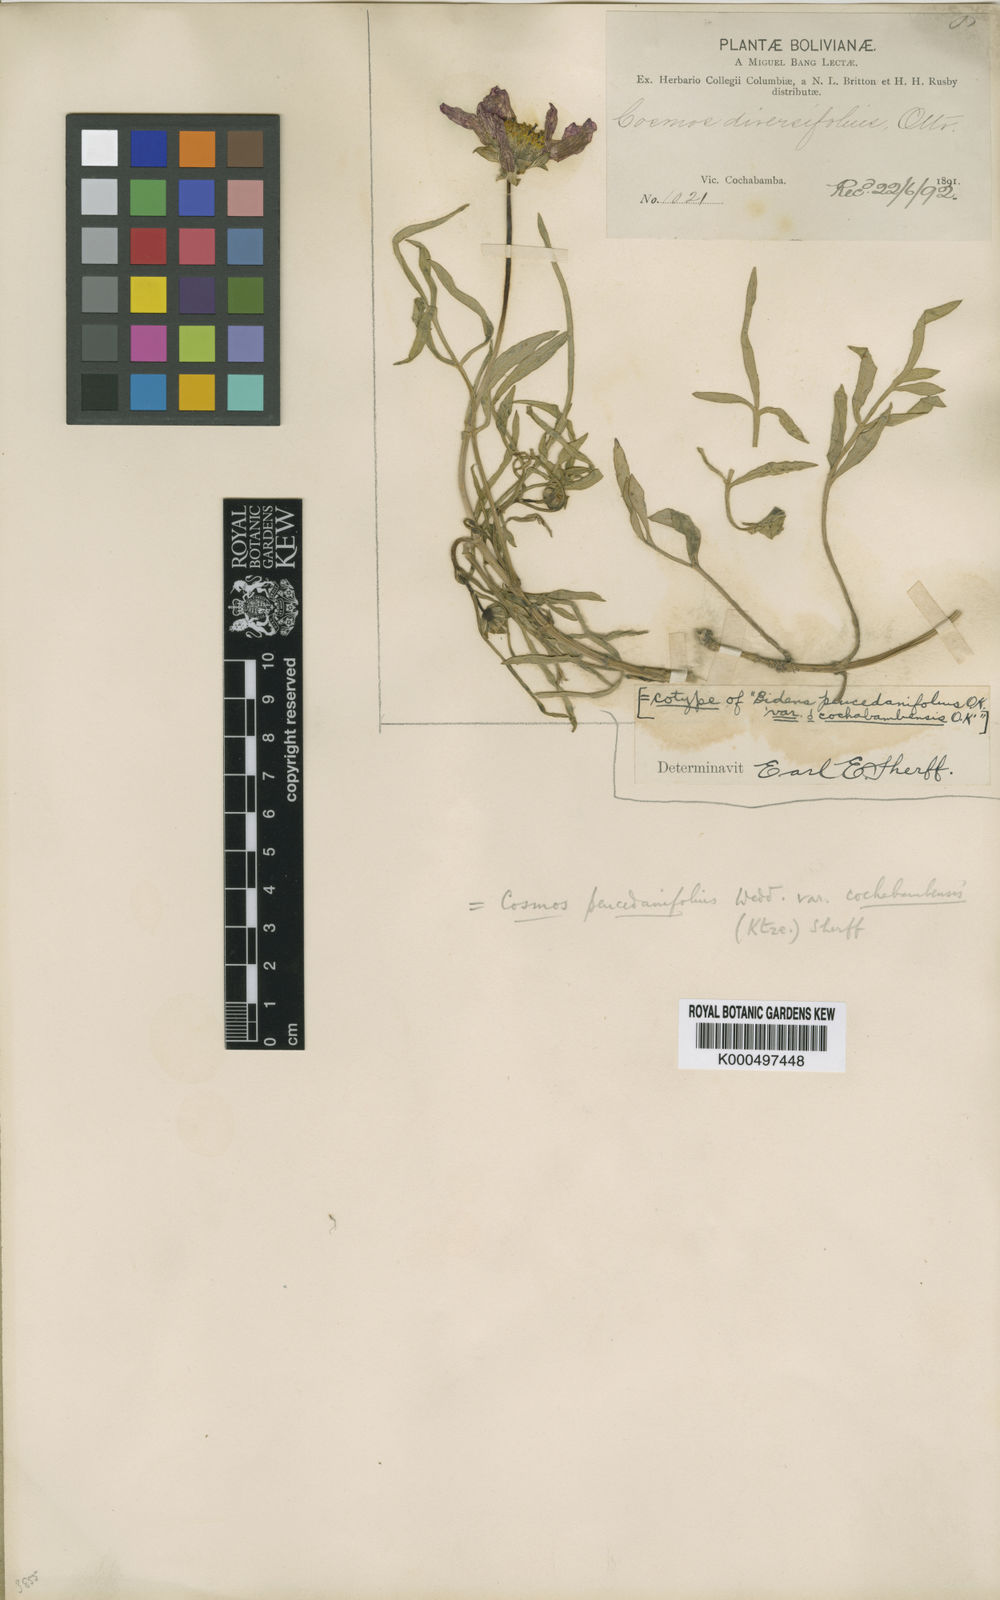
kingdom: Plantae
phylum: Tracheophyta
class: Magnoliopsida
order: Asterales
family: Asteraceae
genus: Cosmos
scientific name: Cosmos peucedanifolius
